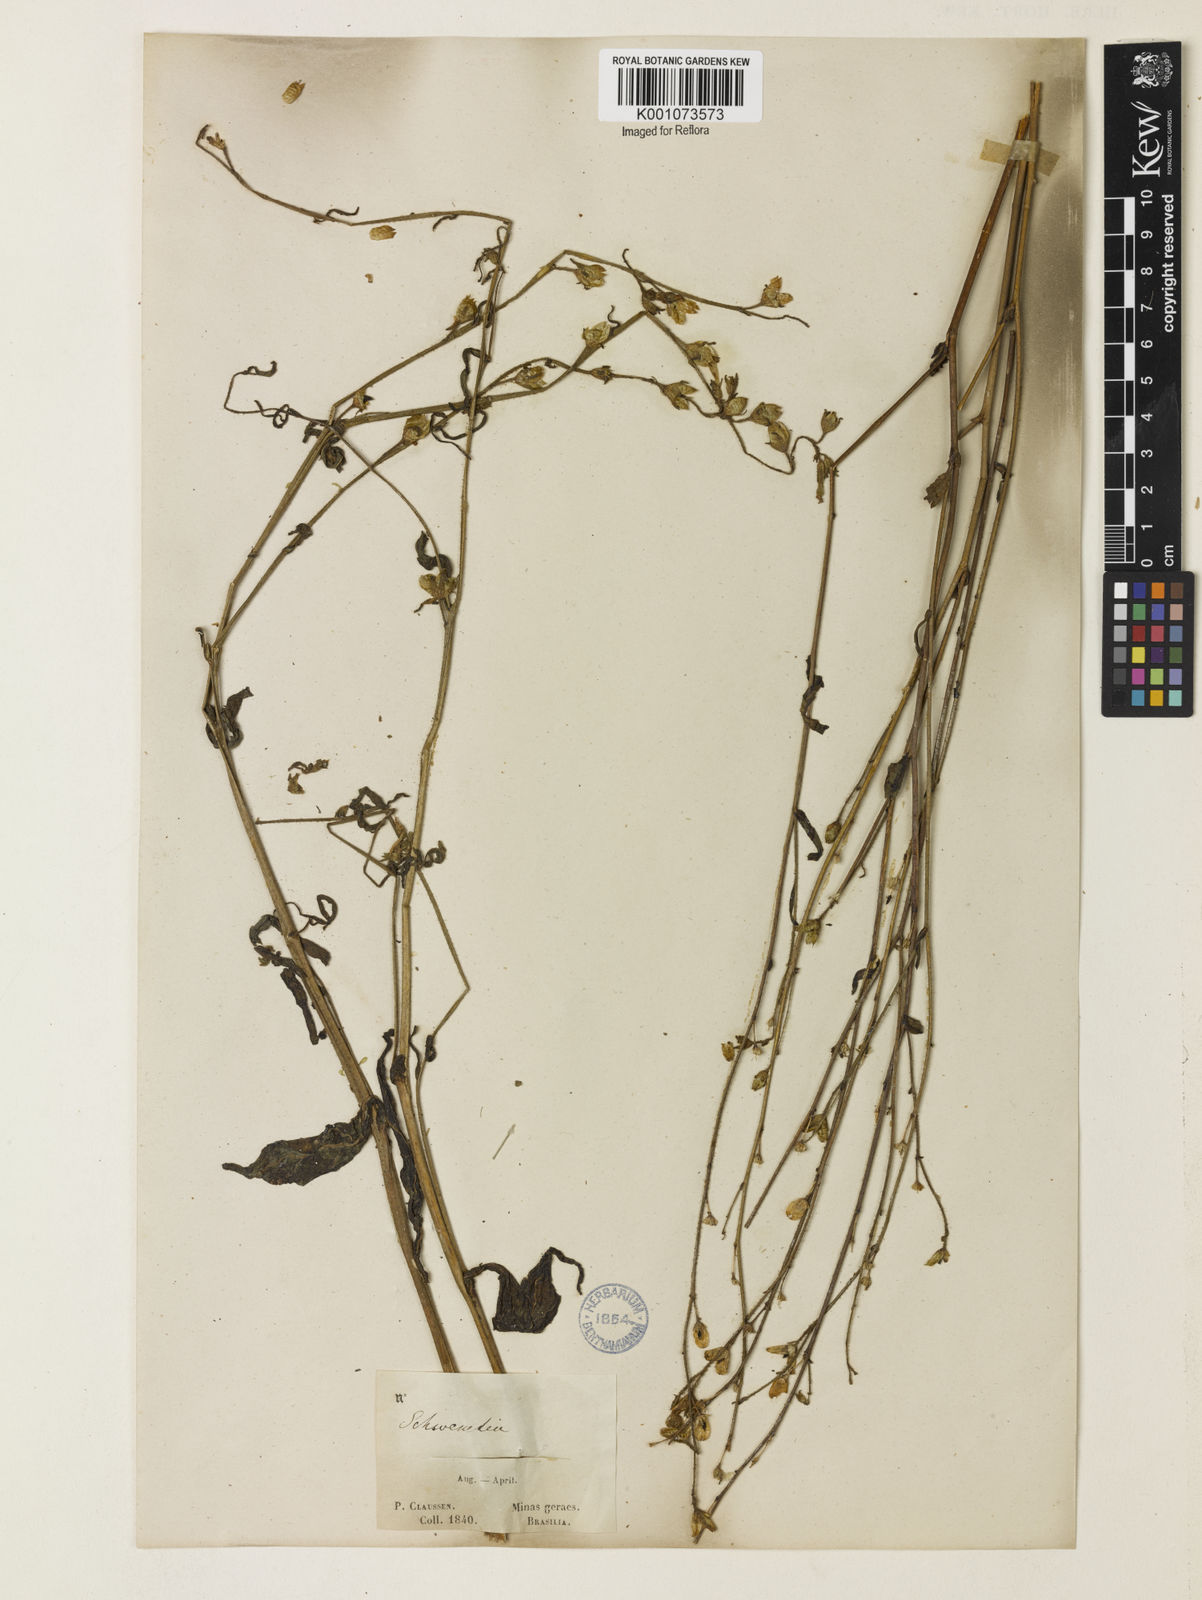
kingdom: Plantae
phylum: Tracheophyta
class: Magnoliopsida
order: Solanales
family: Solanaceae
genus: Schwenckia
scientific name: Schwenckia
